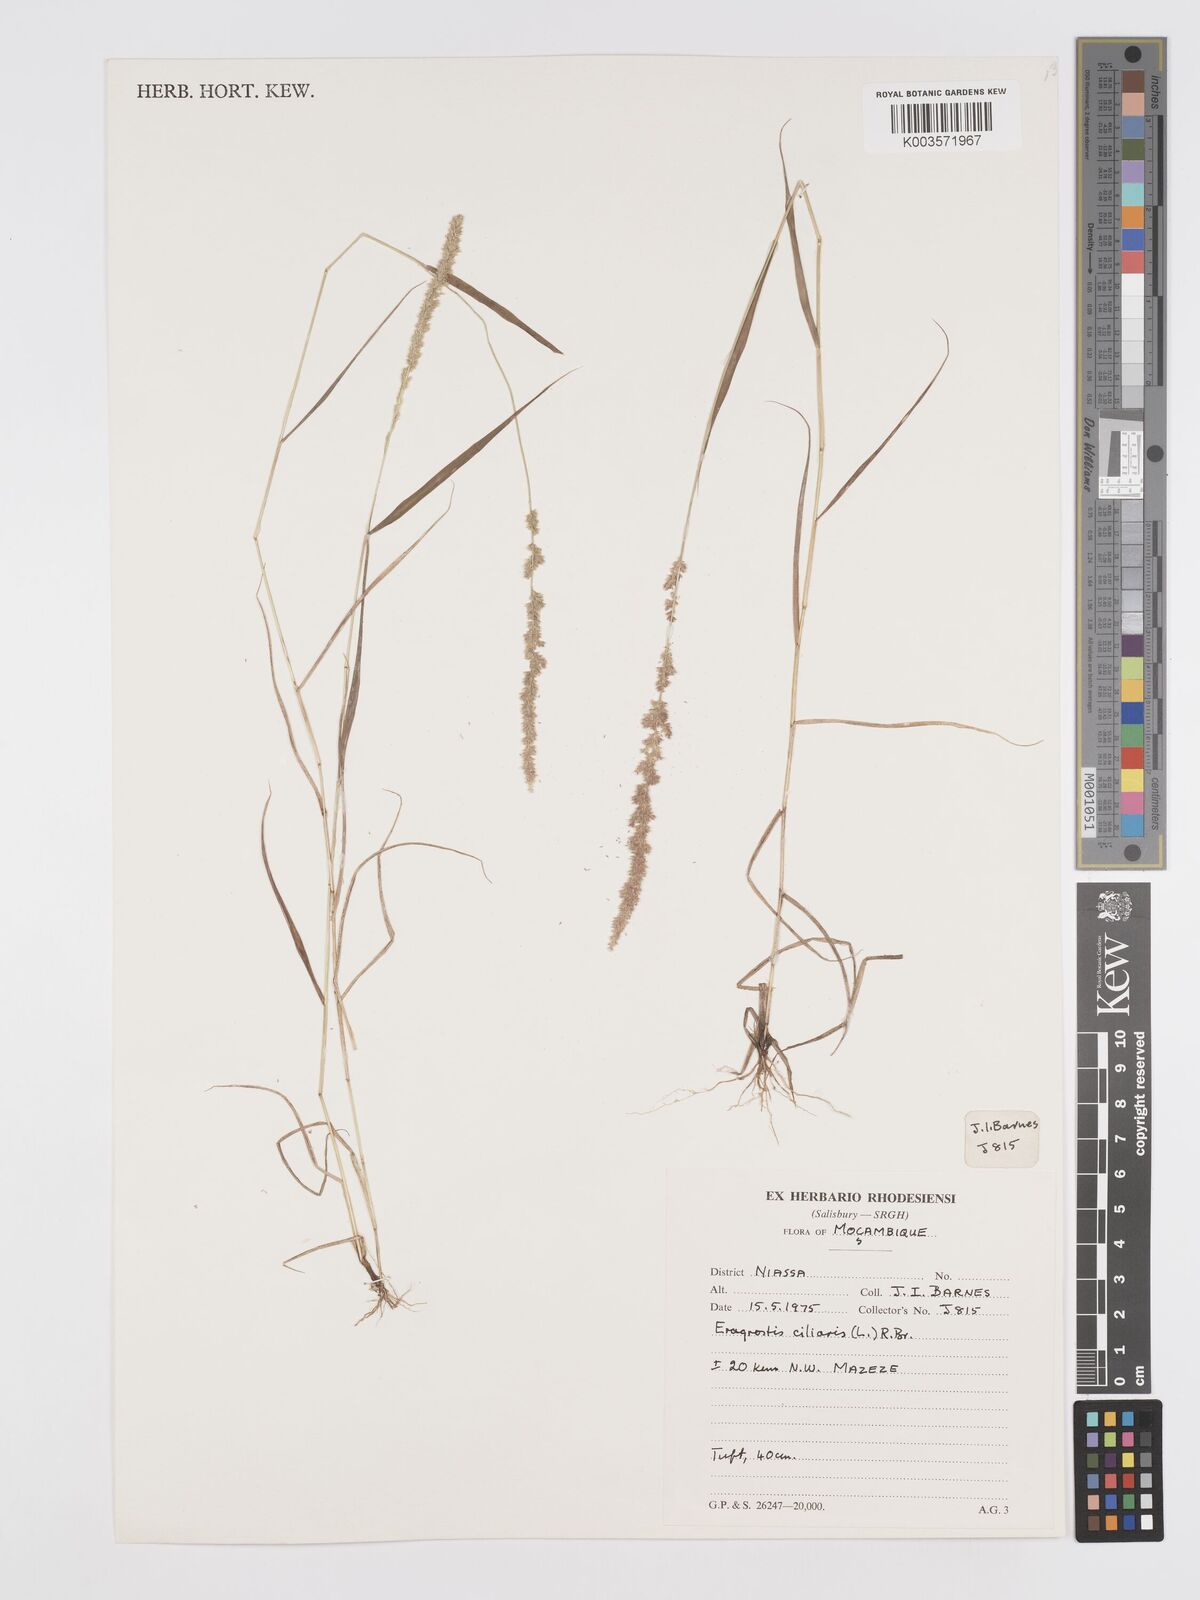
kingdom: Plantae
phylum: Tracheophyta
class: Liliopsida
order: Poales
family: Poaceae
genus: Eragrostis
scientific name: Eragrostis ciliaris
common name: Gophertail lovegrass
